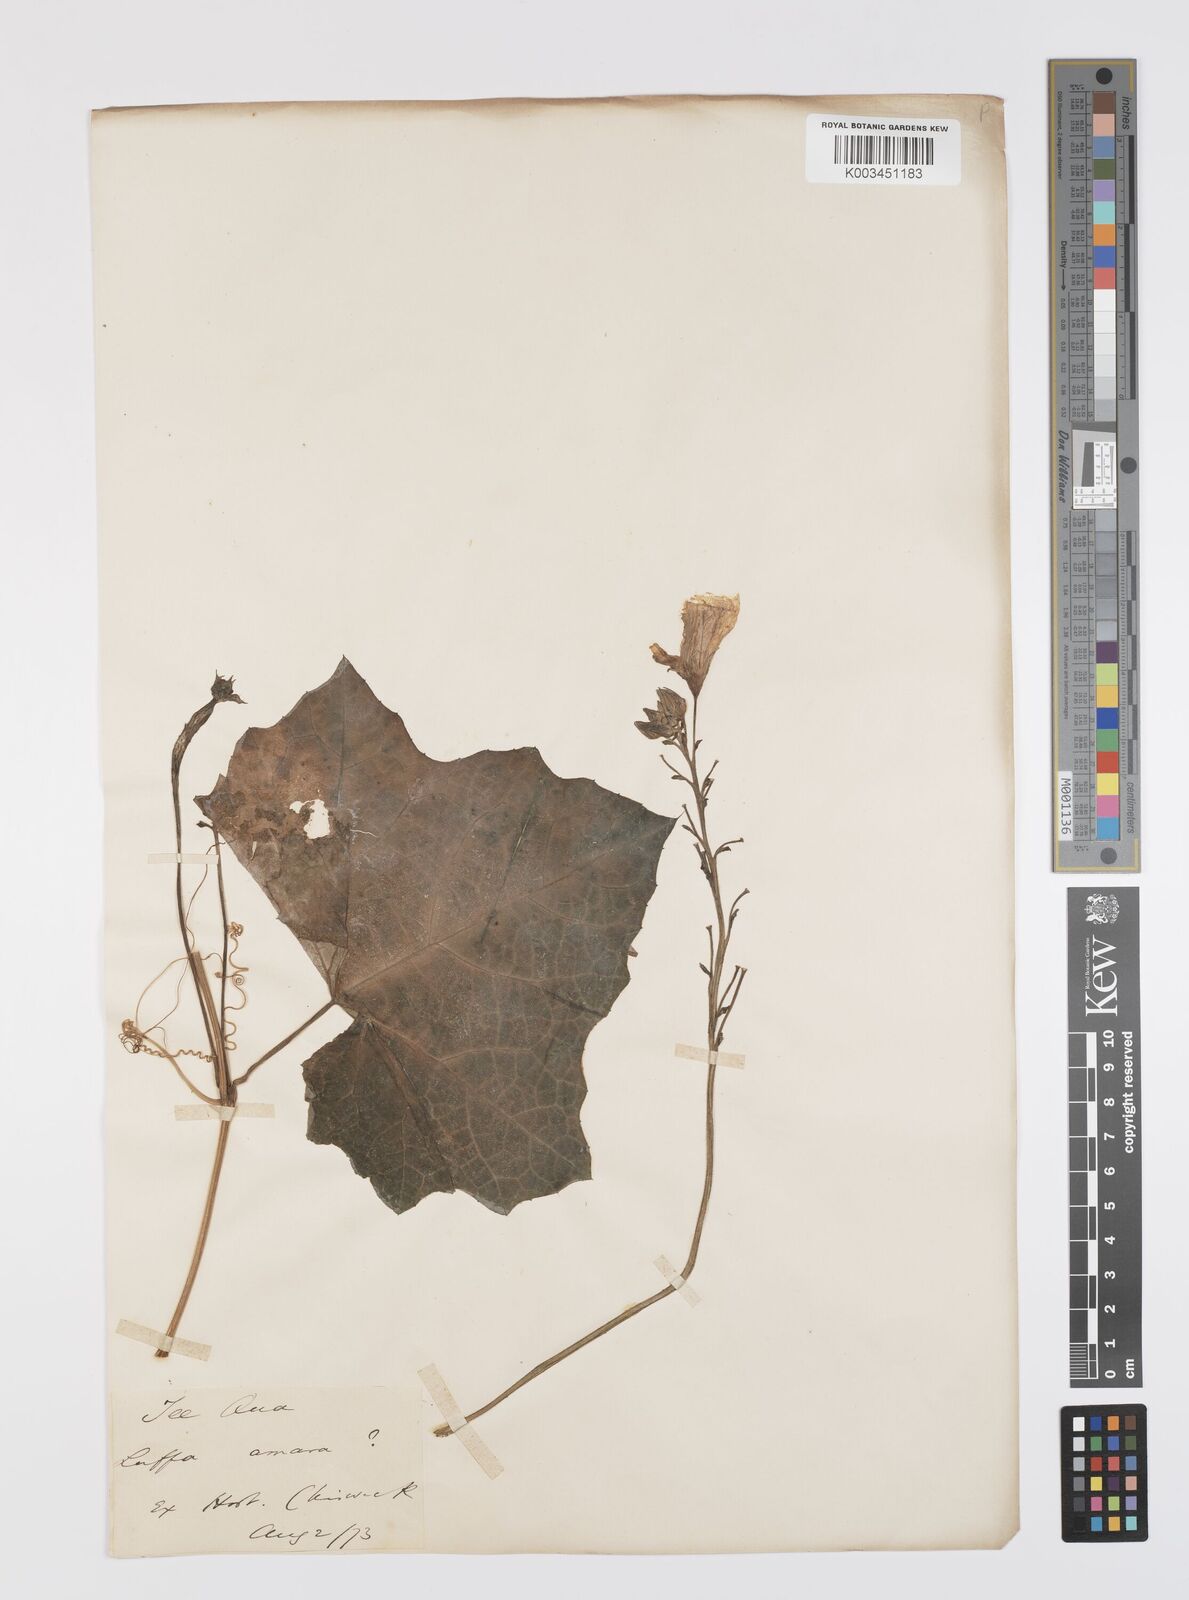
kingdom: Plantae
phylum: Tracheophyta
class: Magnoliopsida
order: Cucurbitales
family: Cucurbitaceae
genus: Luffa
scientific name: Luffa acutangula
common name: Sinkwa towelsponge
